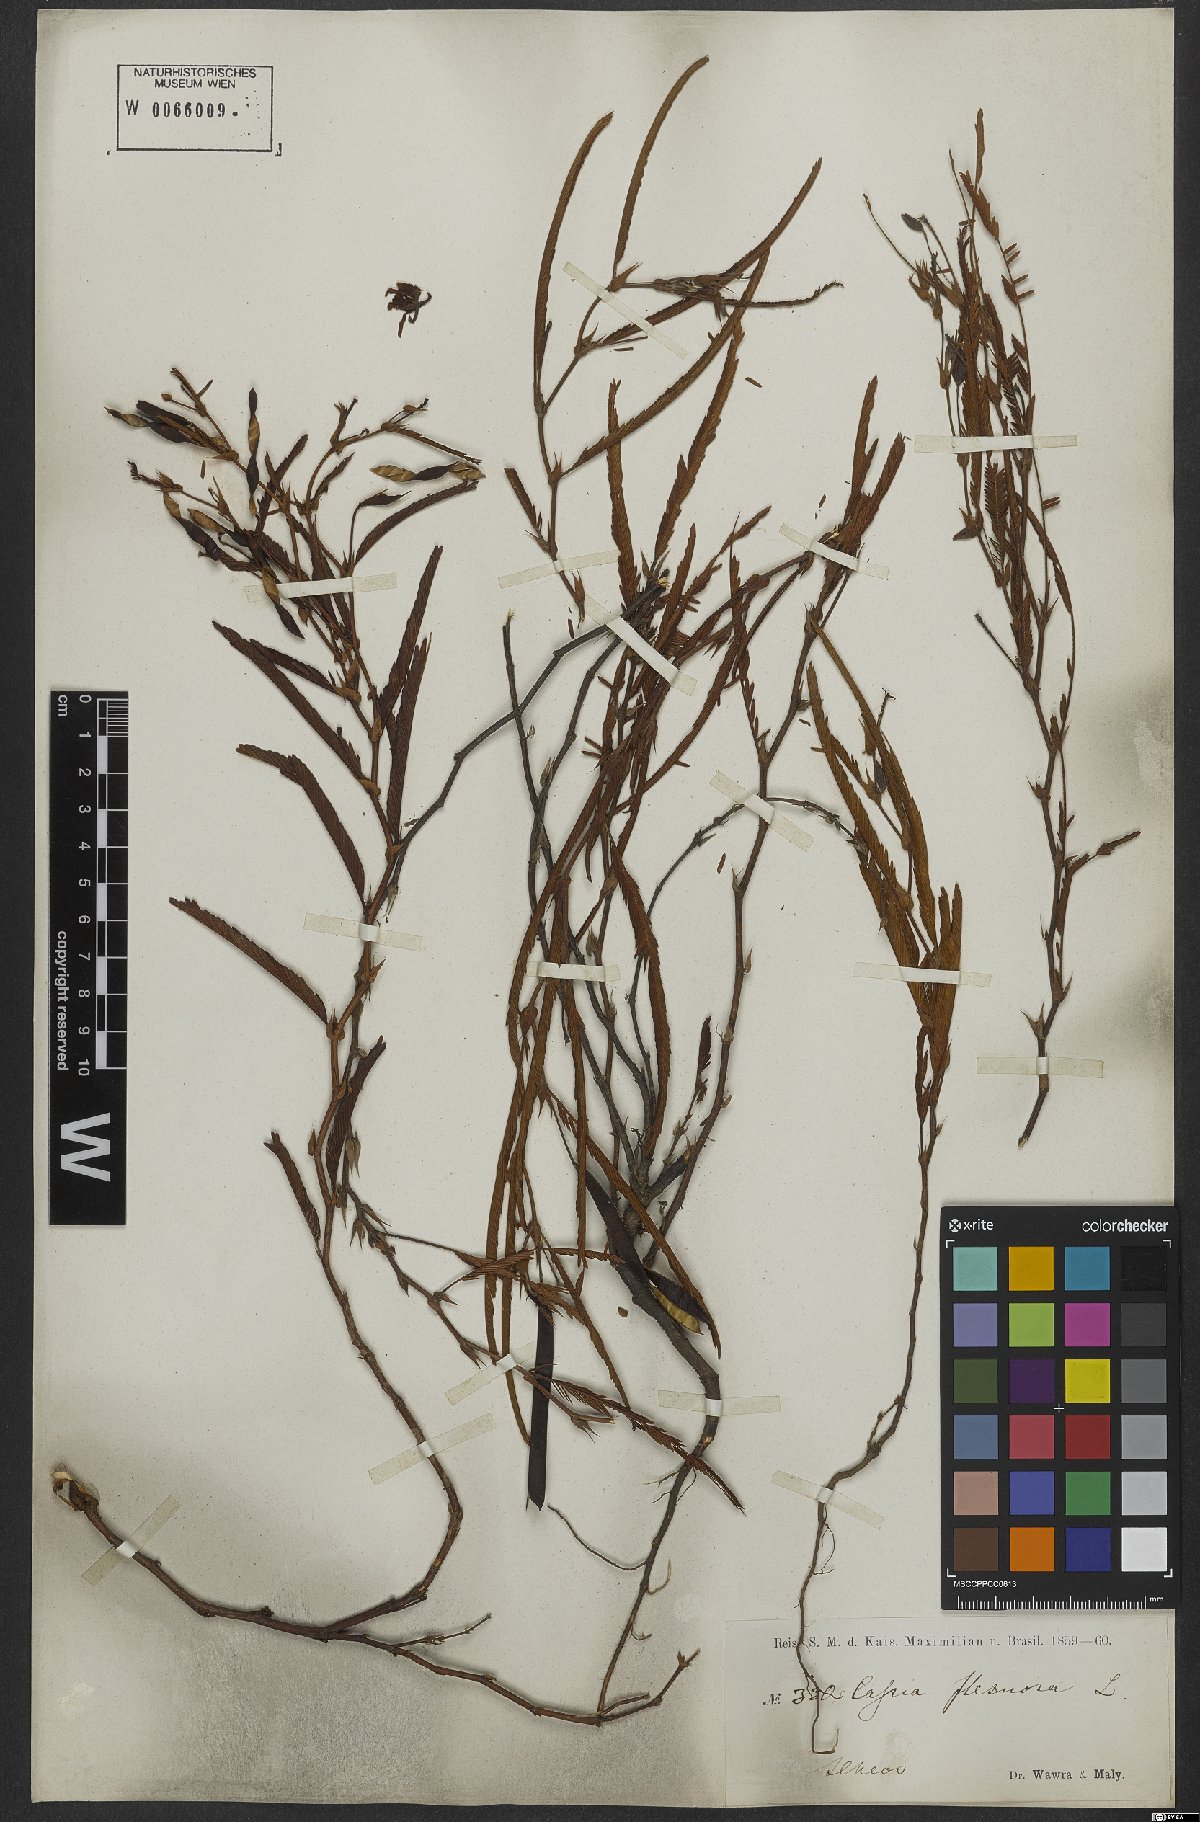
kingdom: Plantae
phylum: Tracheophyta
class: Magnoliopsida
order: Fabales
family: Fabaceae
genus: Chamaecrista
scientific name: Chamaecrista flexuosa
